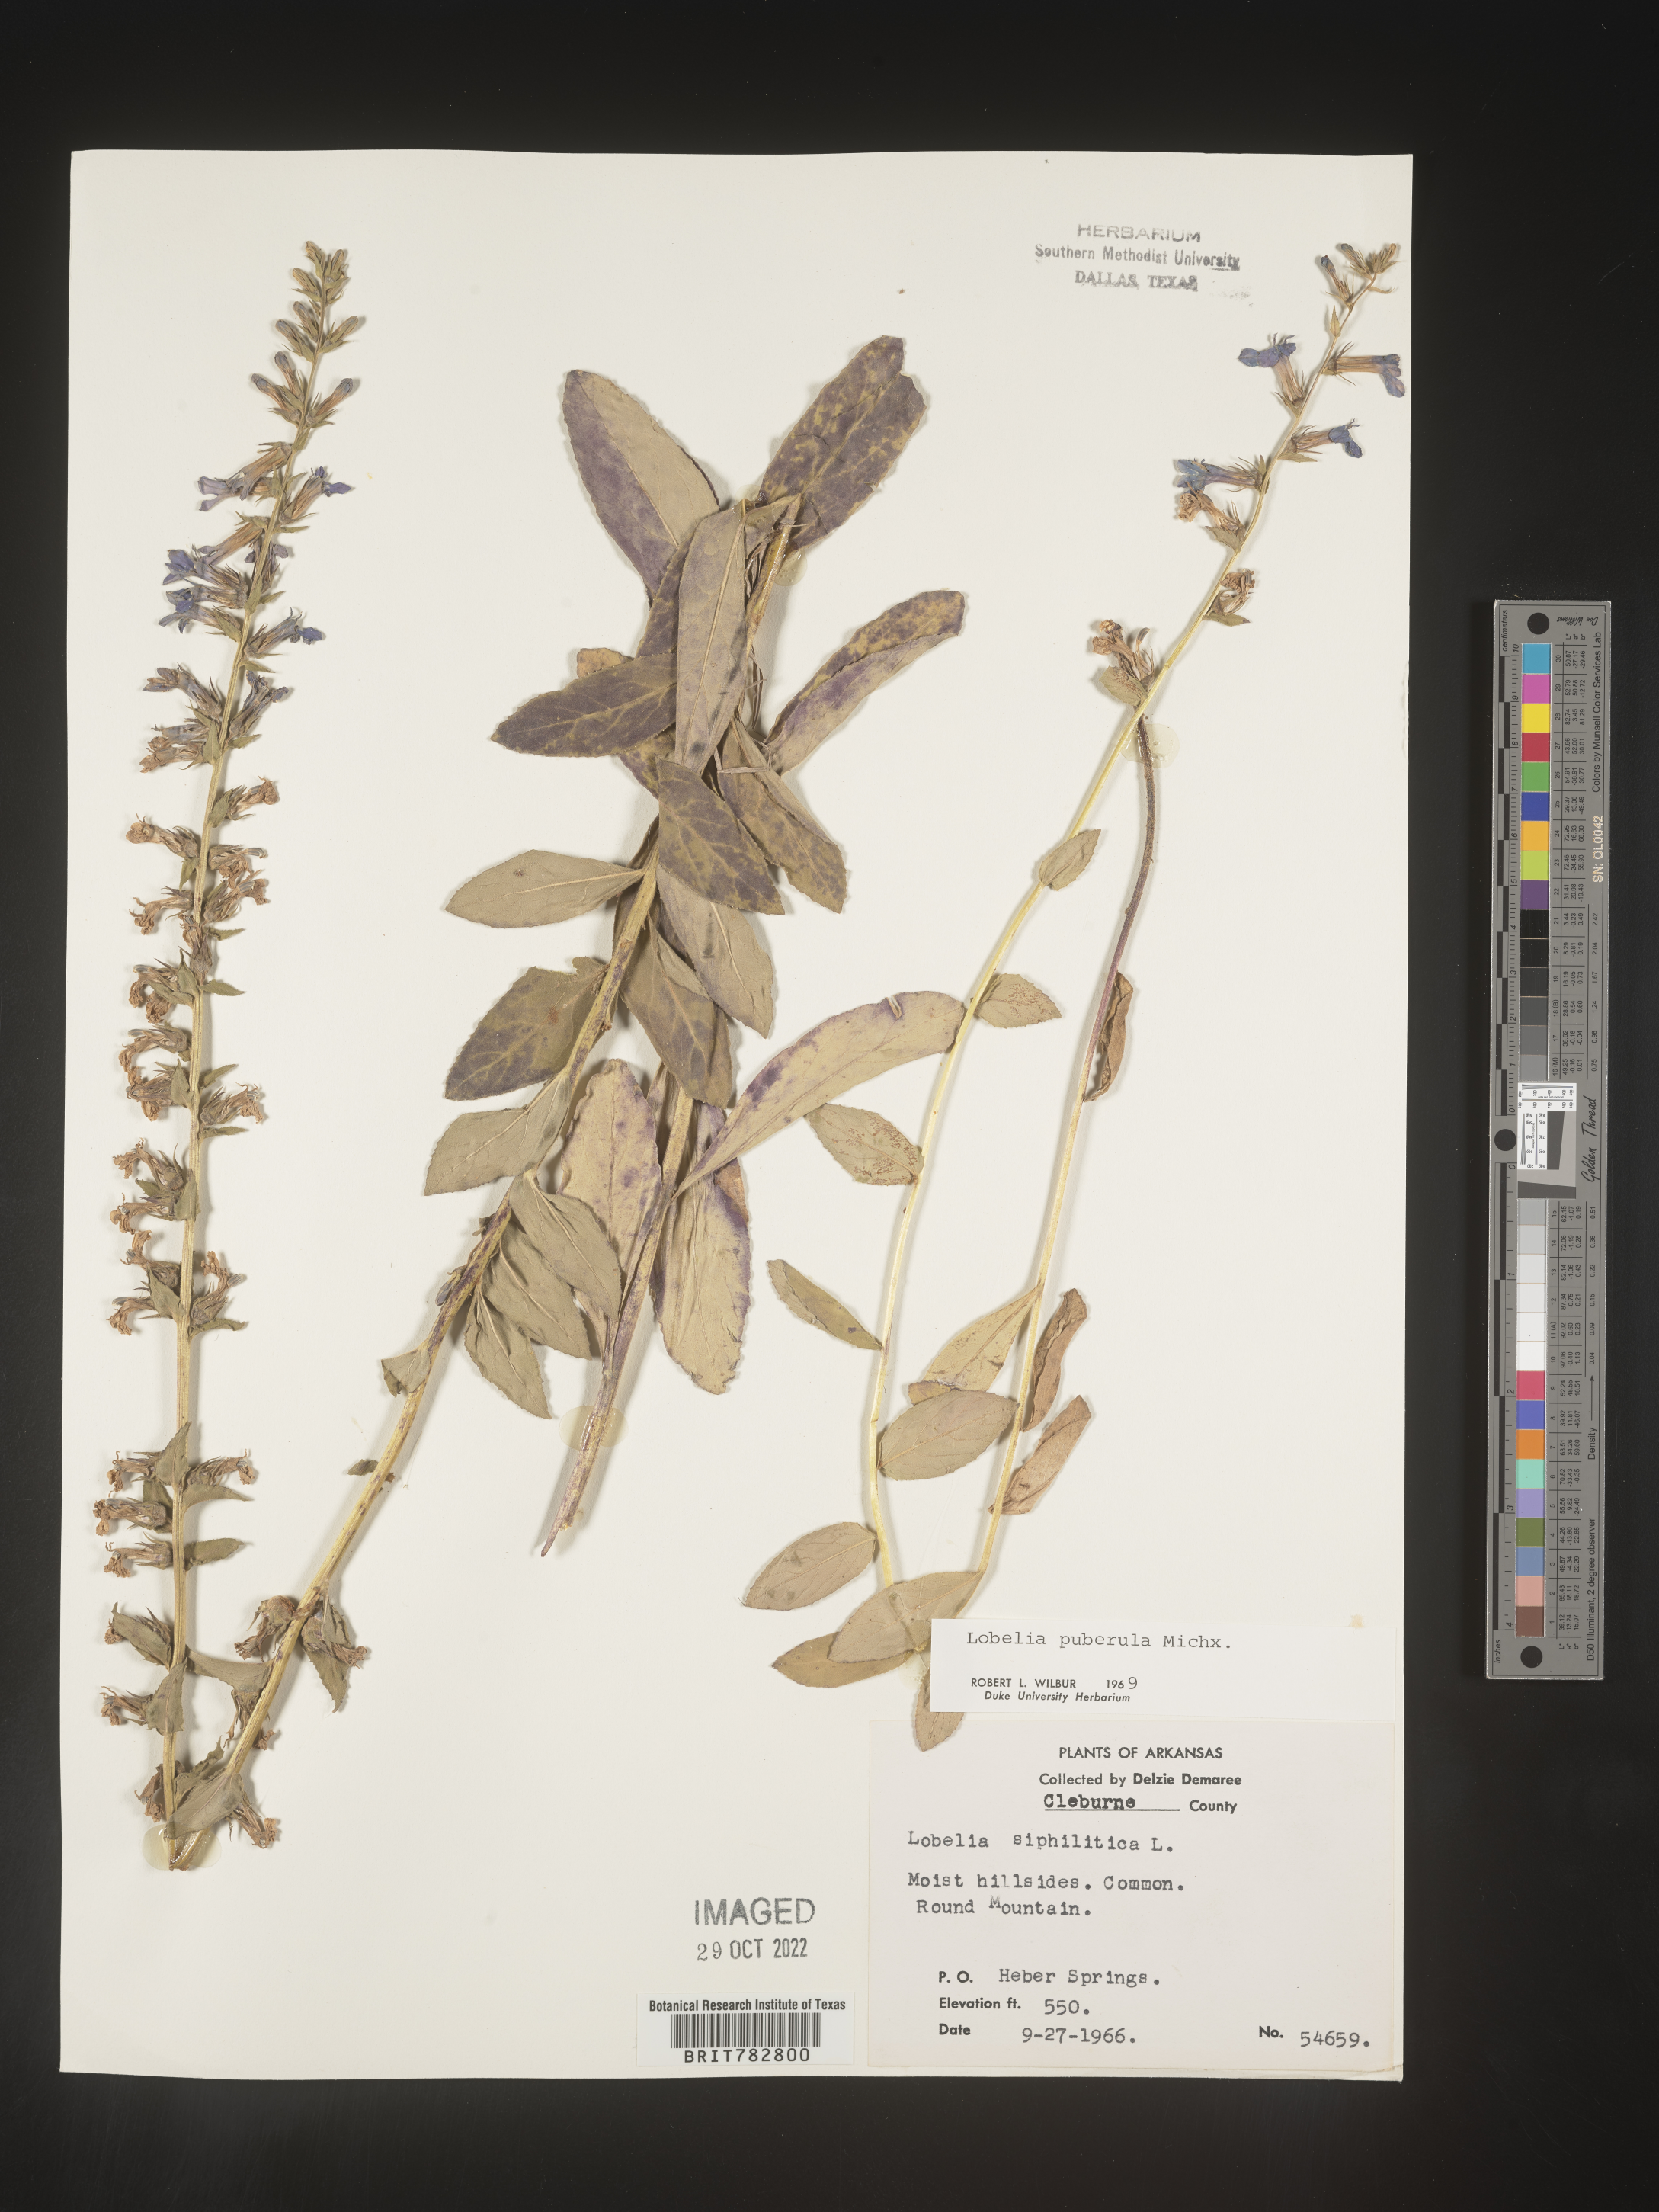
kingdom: Plantae
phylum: Tracheophyta
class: Magnoliopsida
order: Asterales
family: Campanulaceae
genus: Lobelia
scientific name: Lobelia puberula
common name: Purple dewdrop
